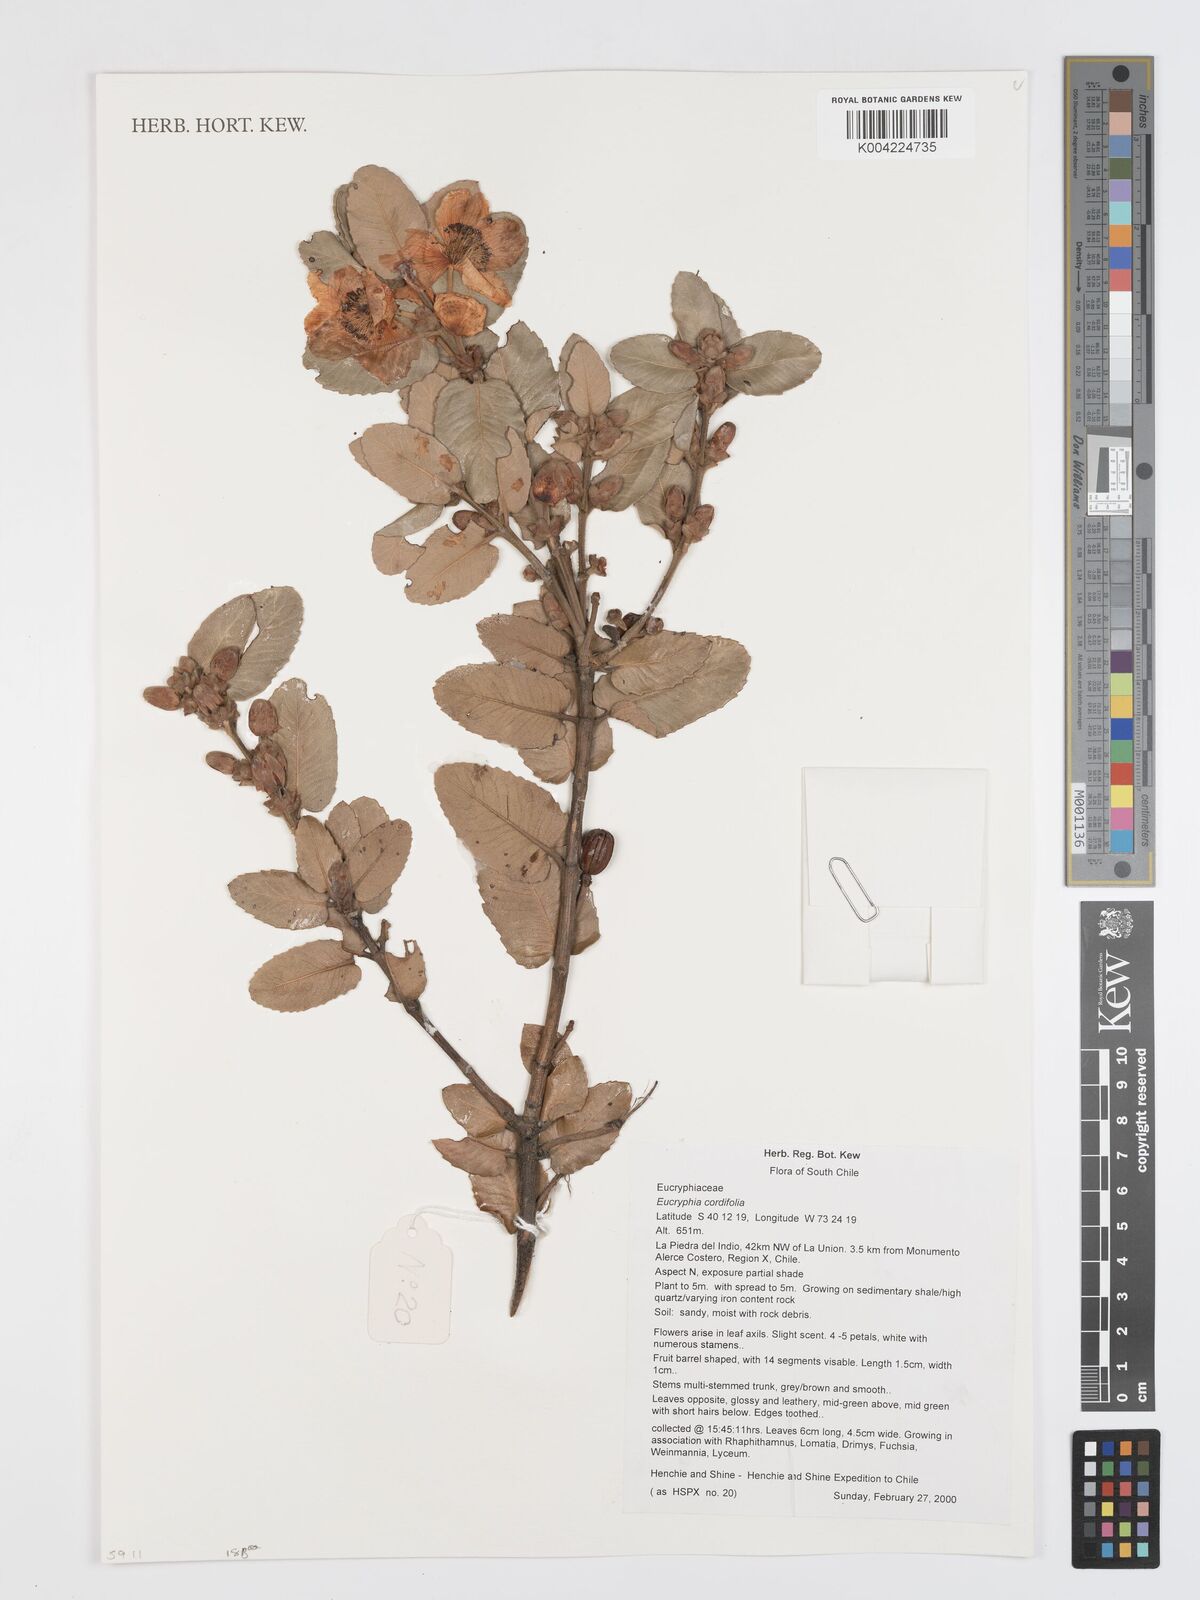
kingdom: Plantae
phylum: Tracheophyta
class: Magnoliopsida
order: Oxalidales
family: Cunoniaceae
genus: Eucryphia
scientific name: Eucryphia cordifolia
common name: Ulmo
